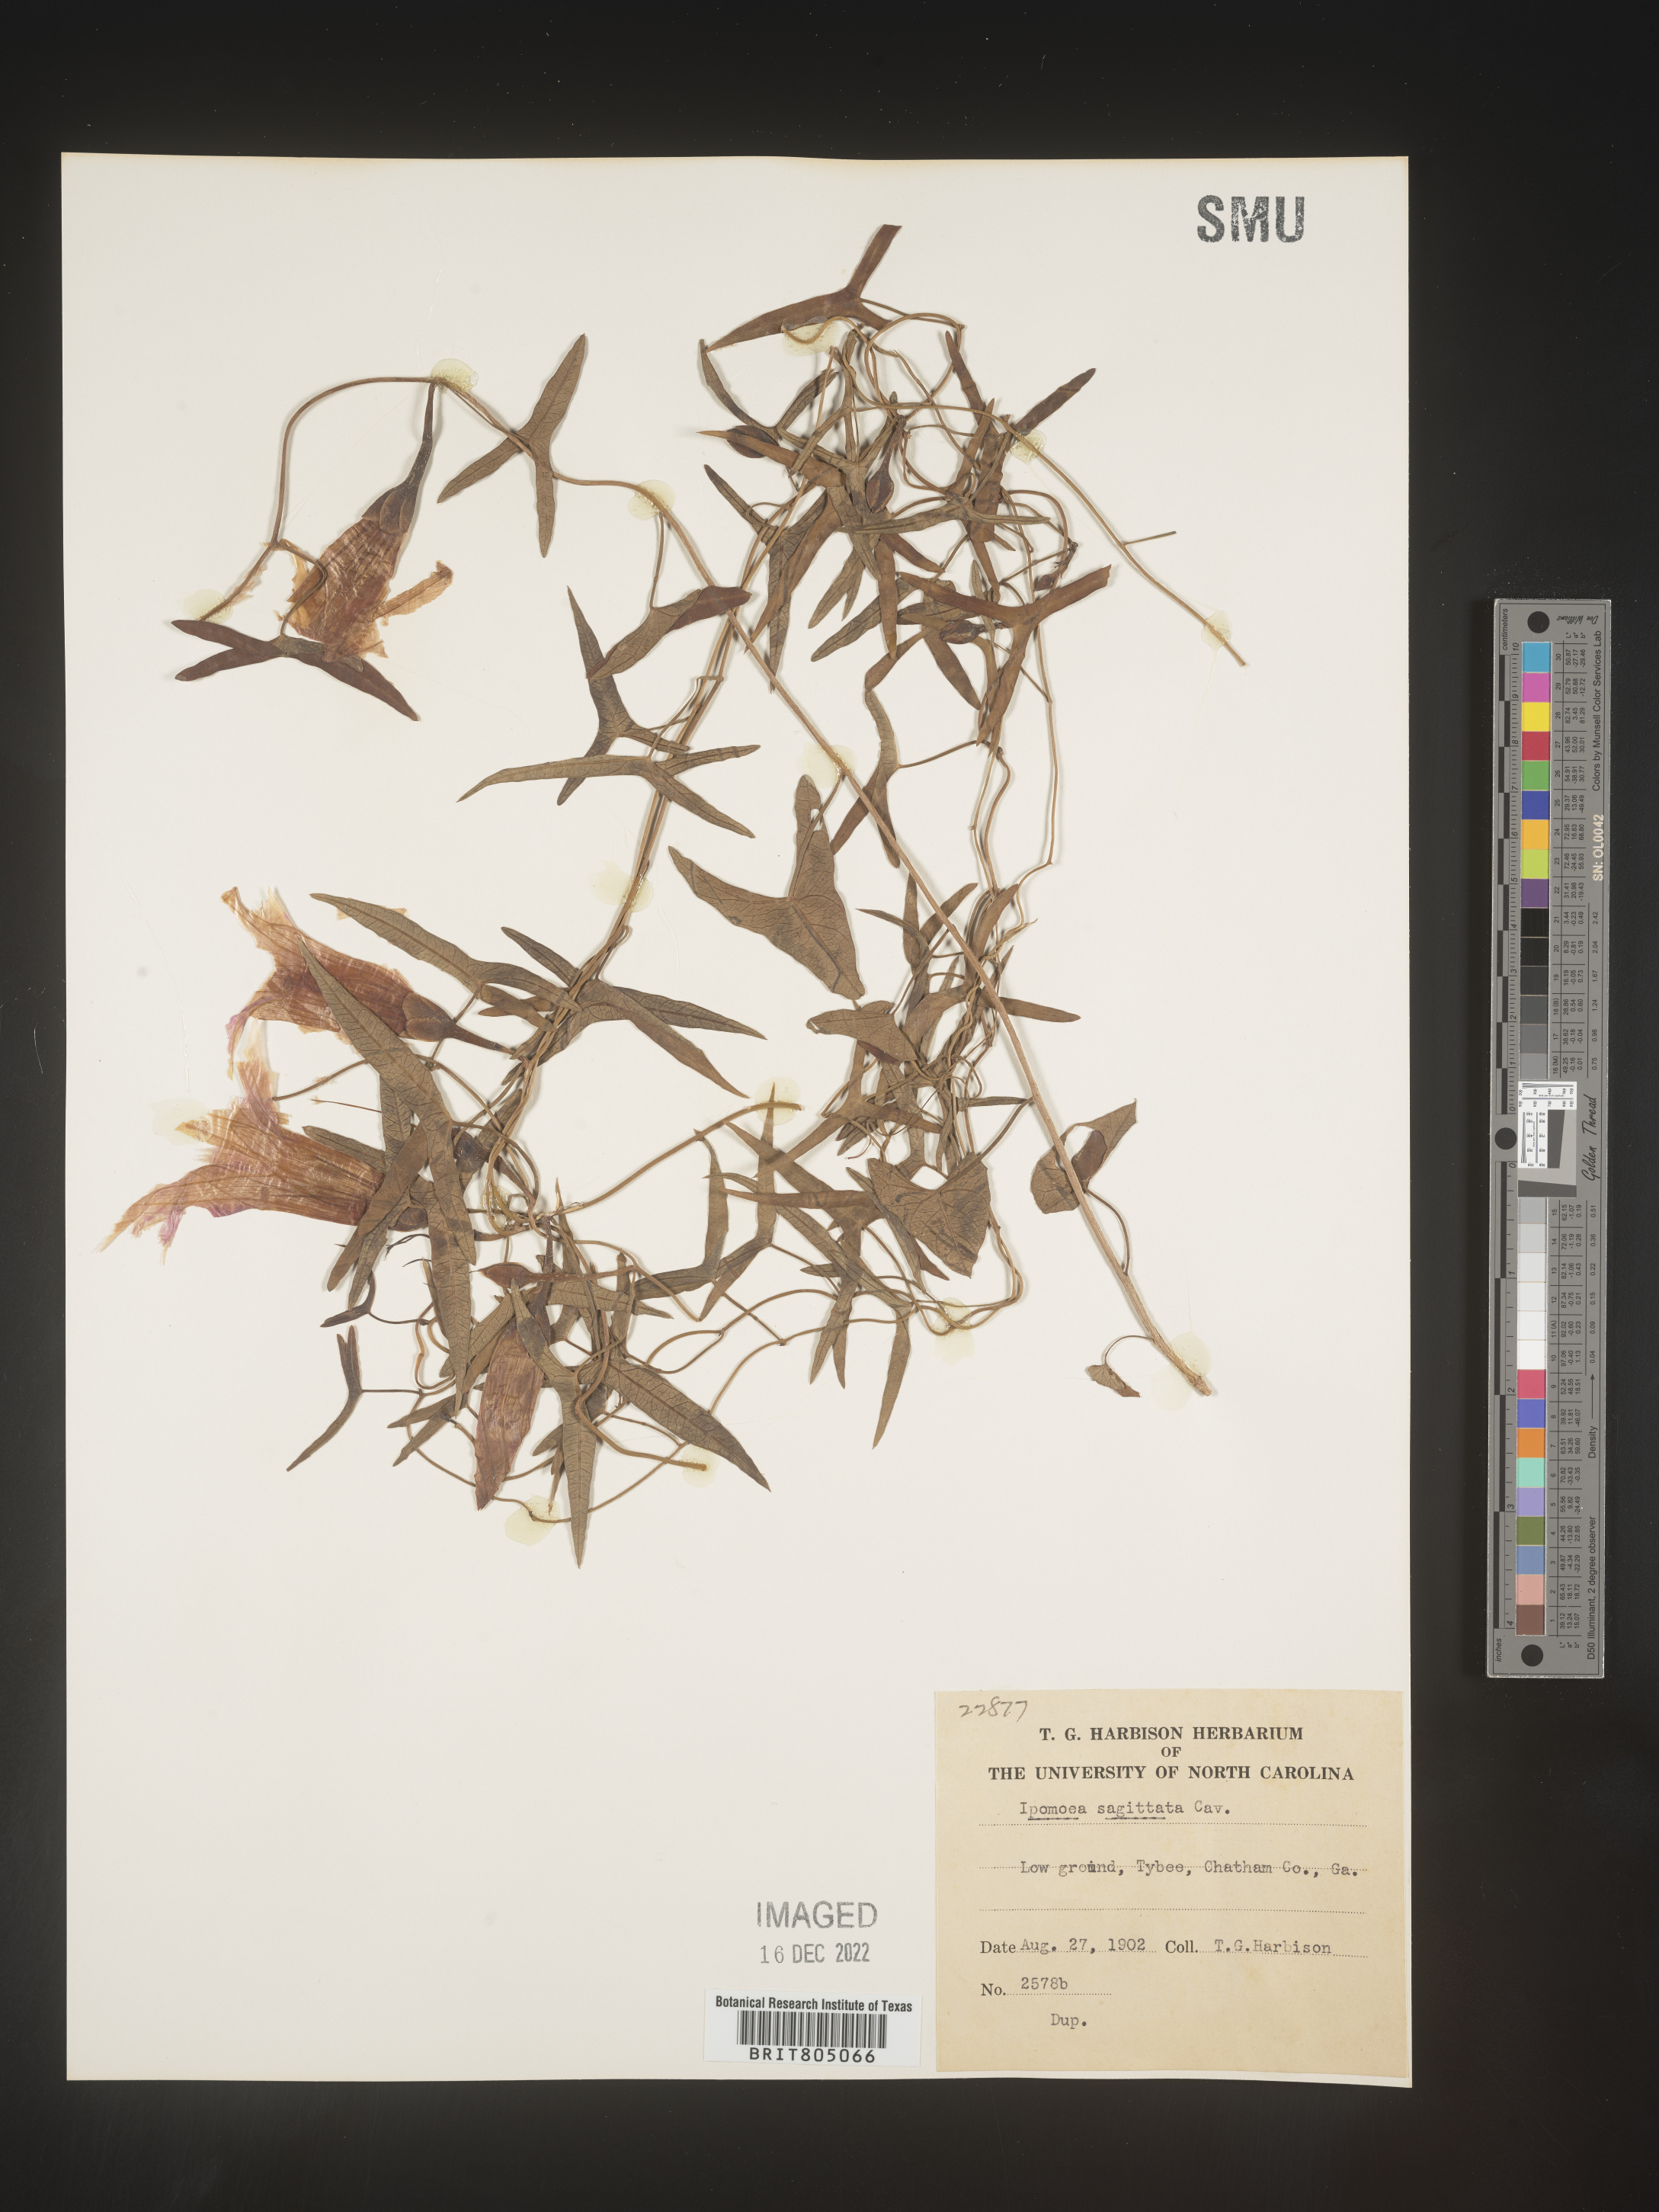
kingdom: Plantae
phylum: Tracheophyta
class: Magnoliopsida
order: Solanales
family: Convolvulaceae
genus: Ipomoea
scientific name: Ipomoea sinensis
